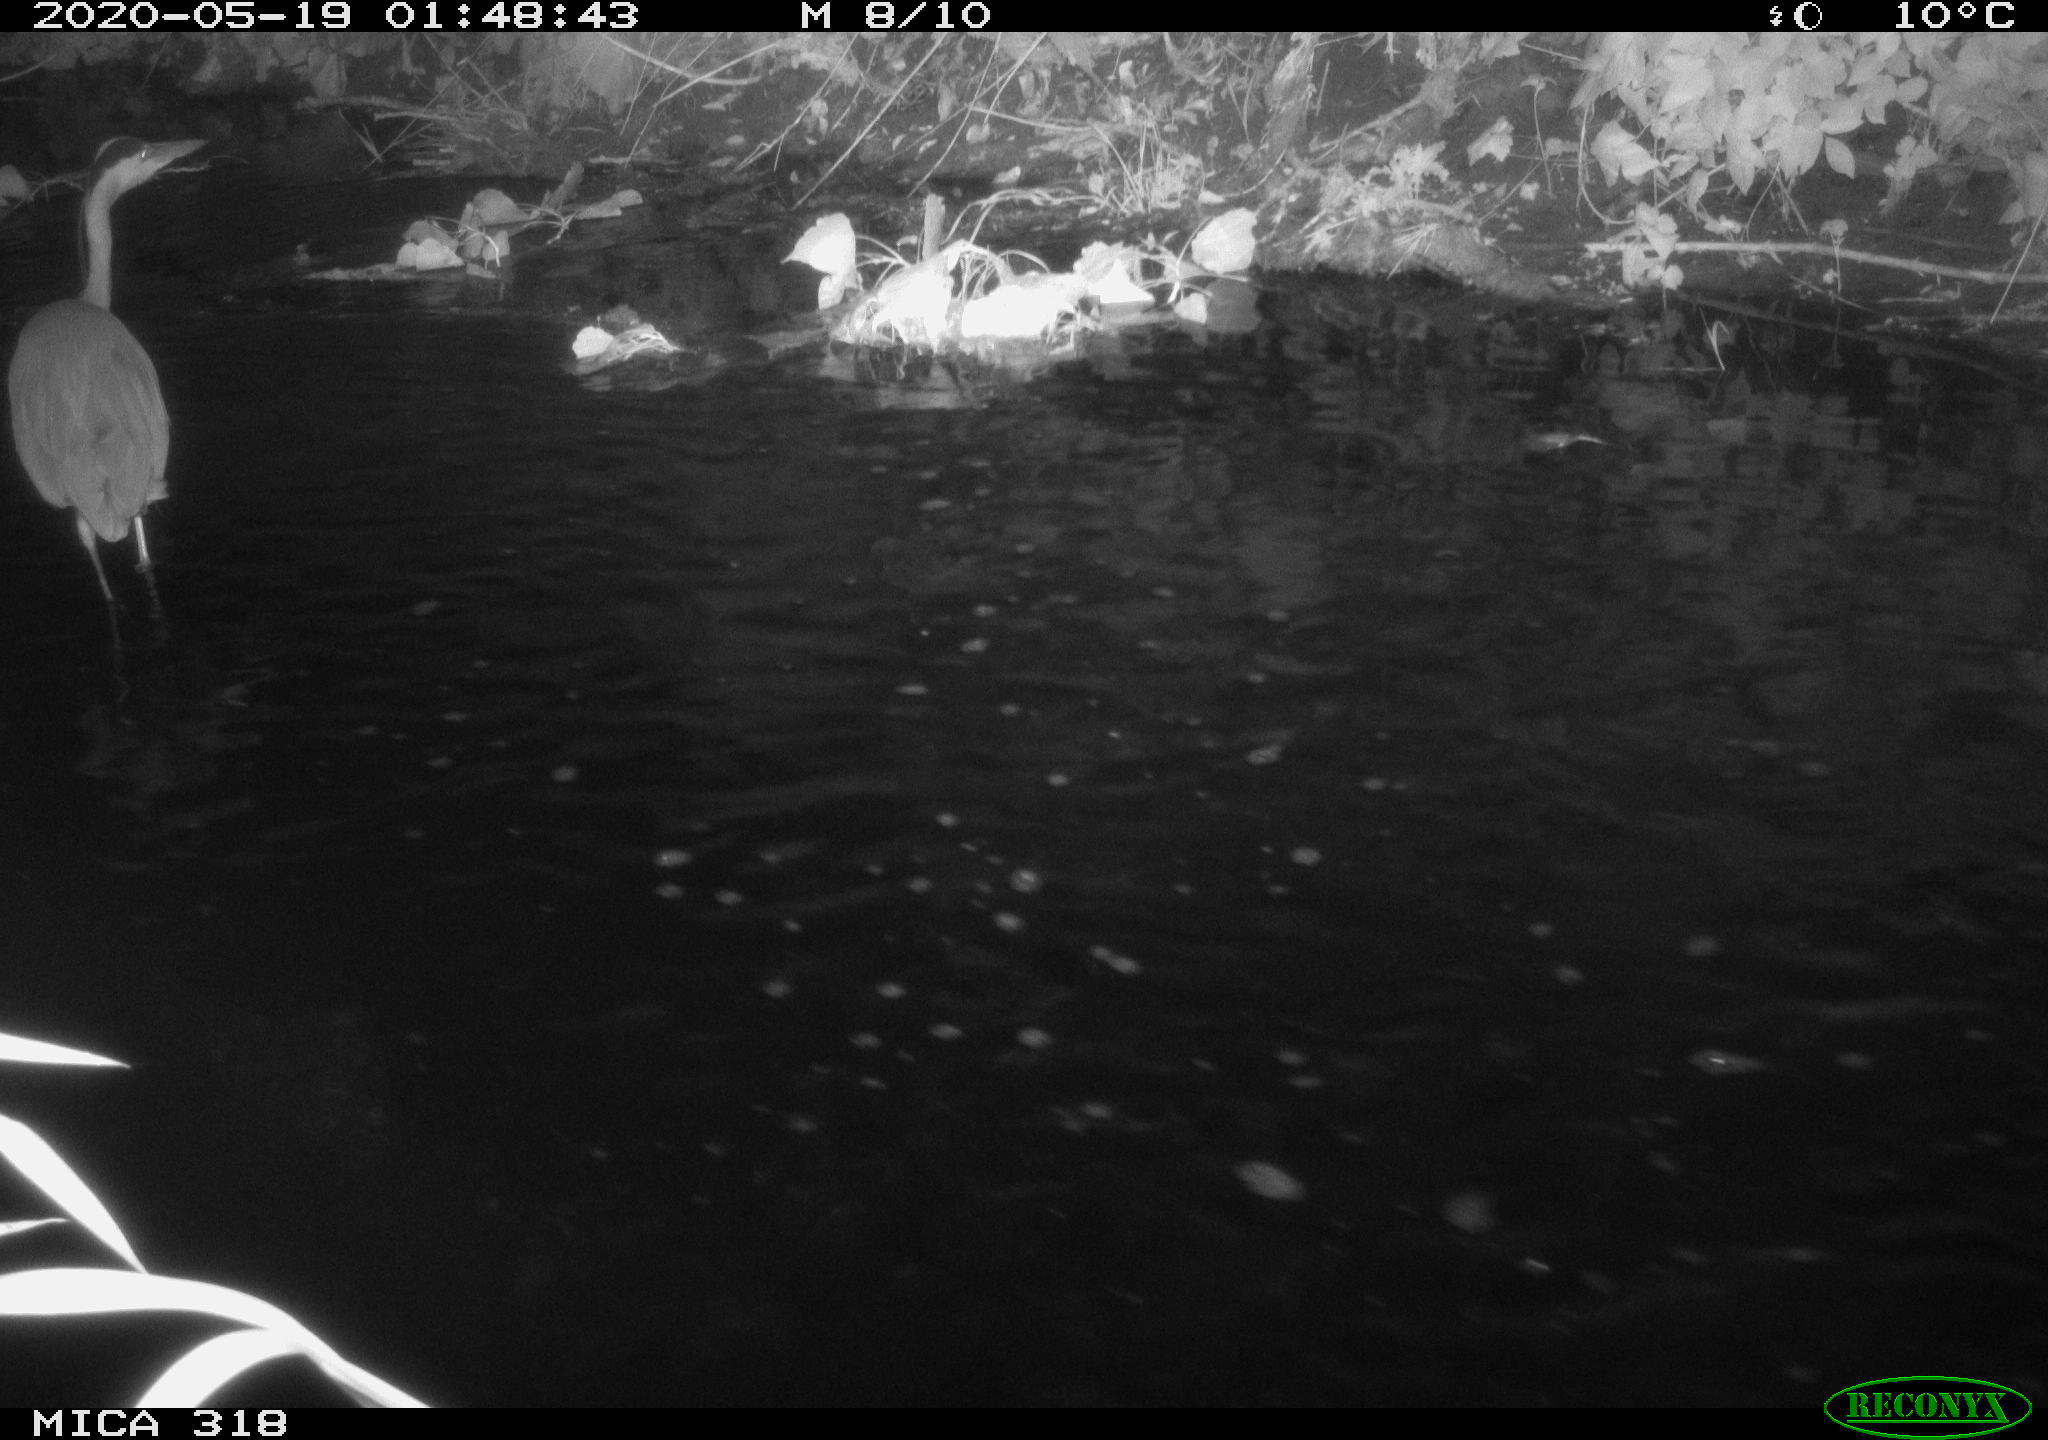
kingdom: Animalia
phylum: Chordata
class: Aves
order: Pelecaniformes
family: Ardeidae
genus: Ardea
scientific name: Ardea cinerea
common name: Grey heron
